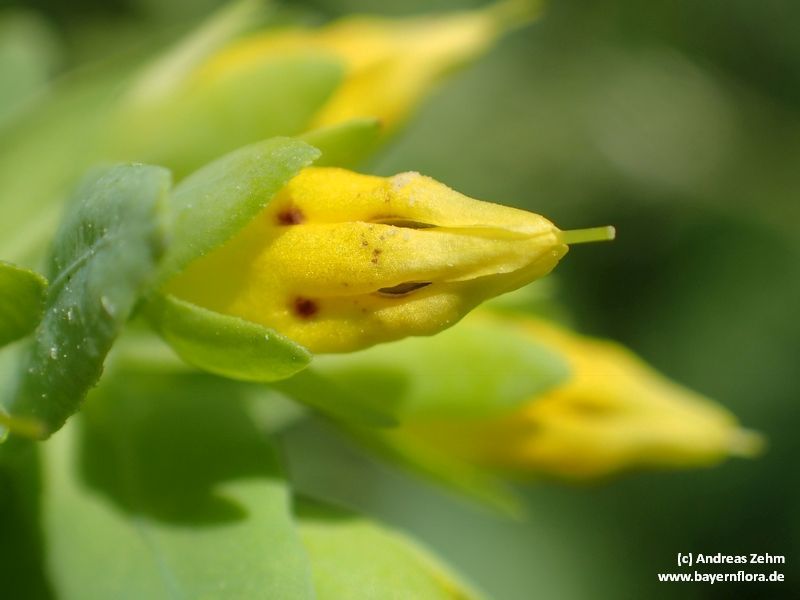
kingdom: Plantae
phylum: Tracheophyta
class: Magnoliopsida
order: Boraginales
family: Boraginaceae
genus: Cerinthe
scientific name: Cerinthe minor
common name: Lesser honeywort
